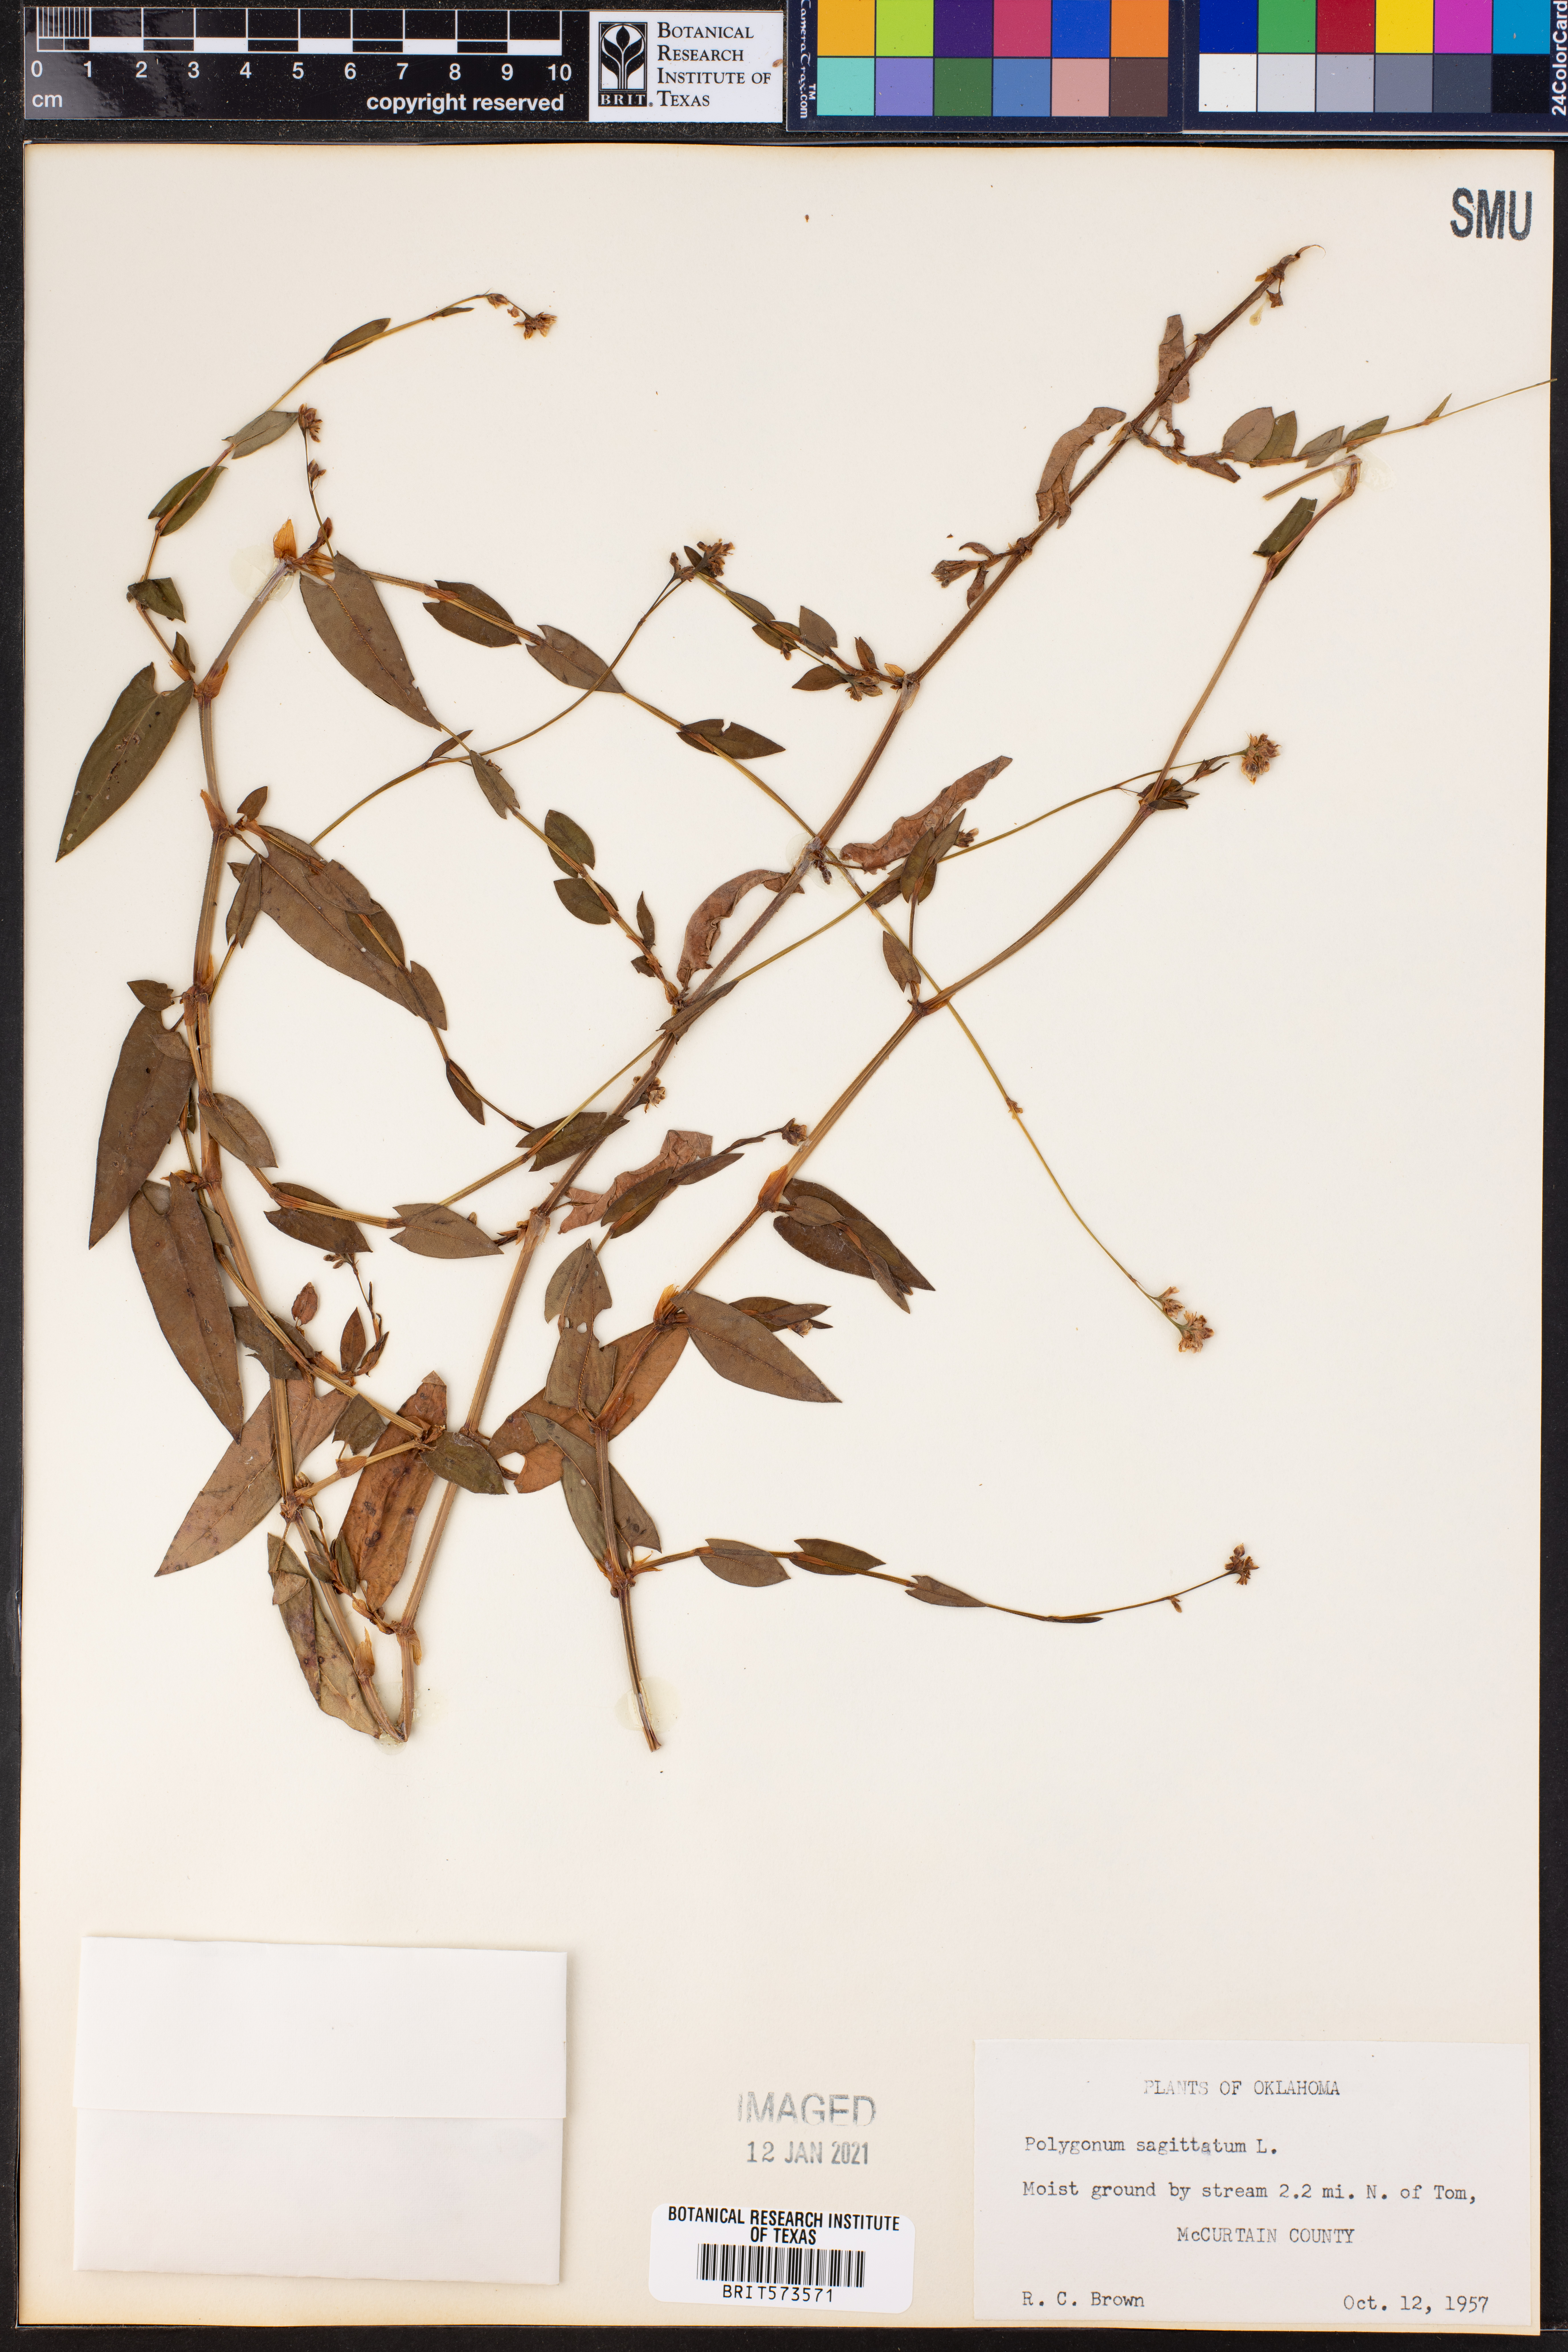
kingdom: Plantae
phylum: Tracheophyta
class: Magnoliopsida
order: Caryophyllales
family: Polygonaceae
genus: Persicaria
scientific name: Persicaria sagittata
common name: American tearthumb
